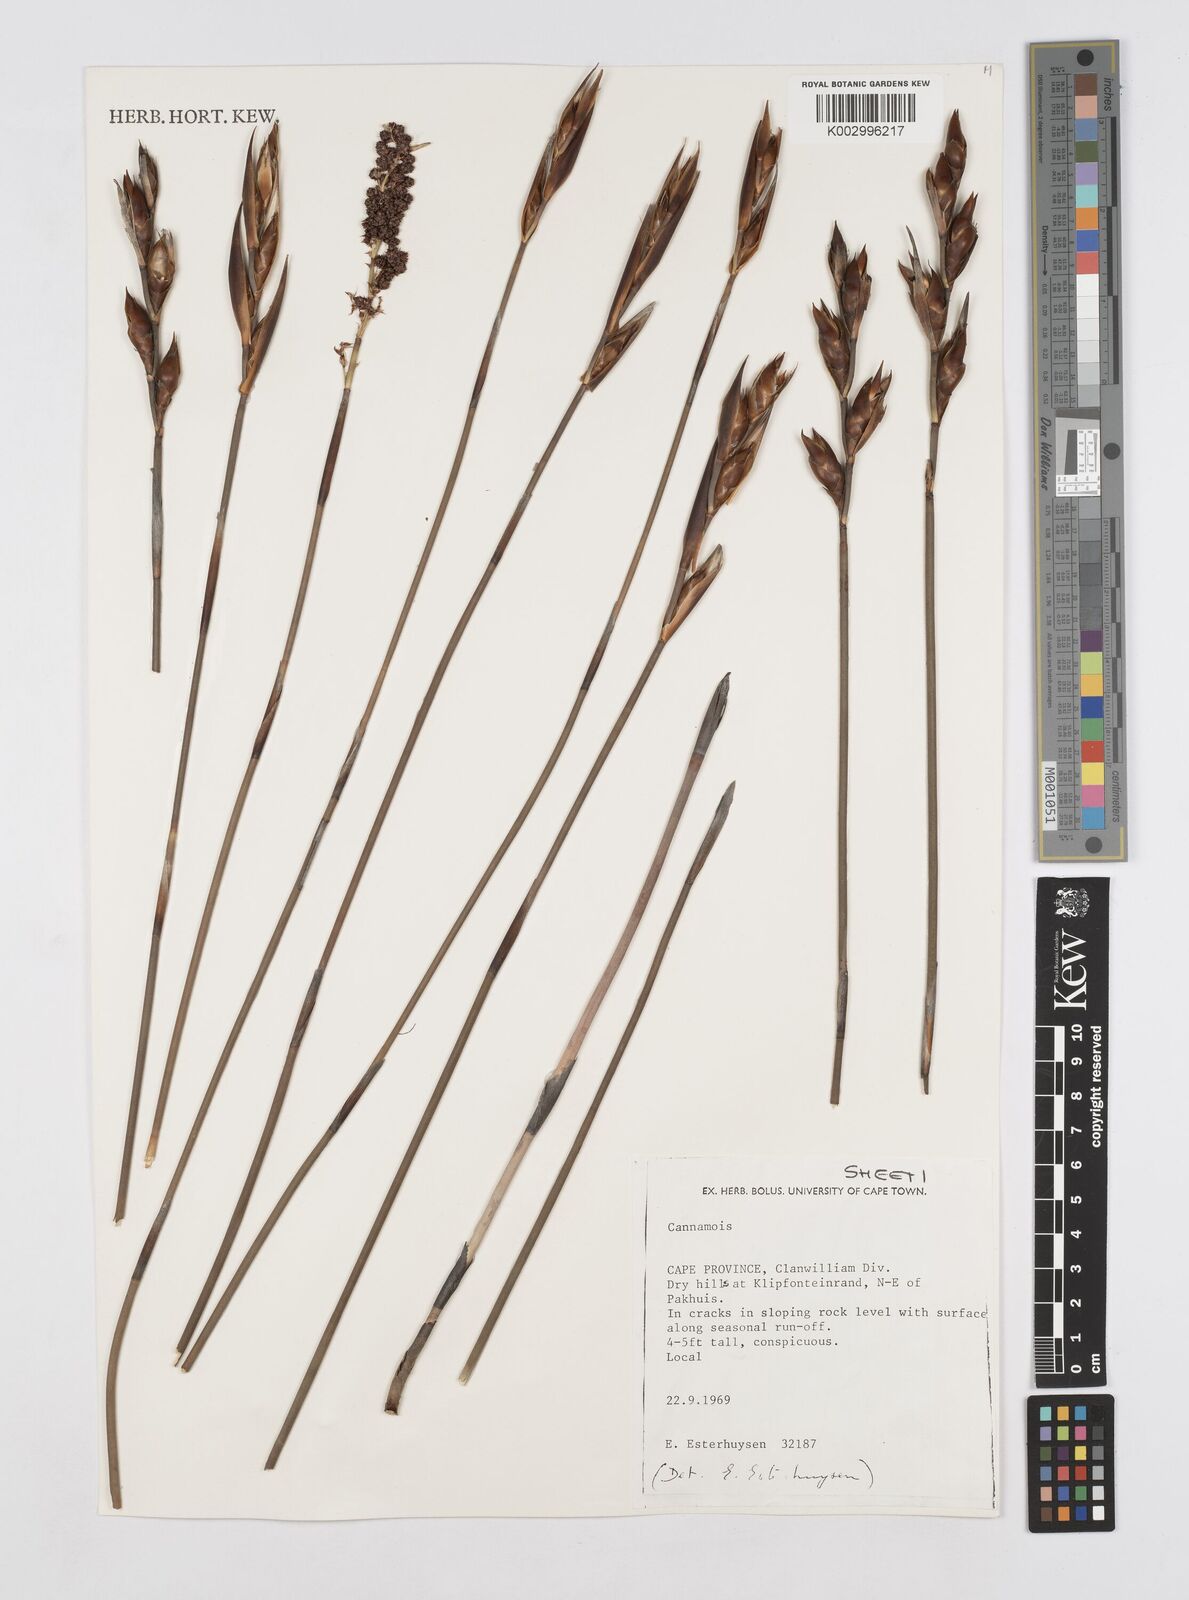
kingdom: Plantae
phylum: Tracheophyta
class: Liliopsida
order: Poales
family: Restionaceae
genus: Cannomois
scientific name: Cannomois taylorii
